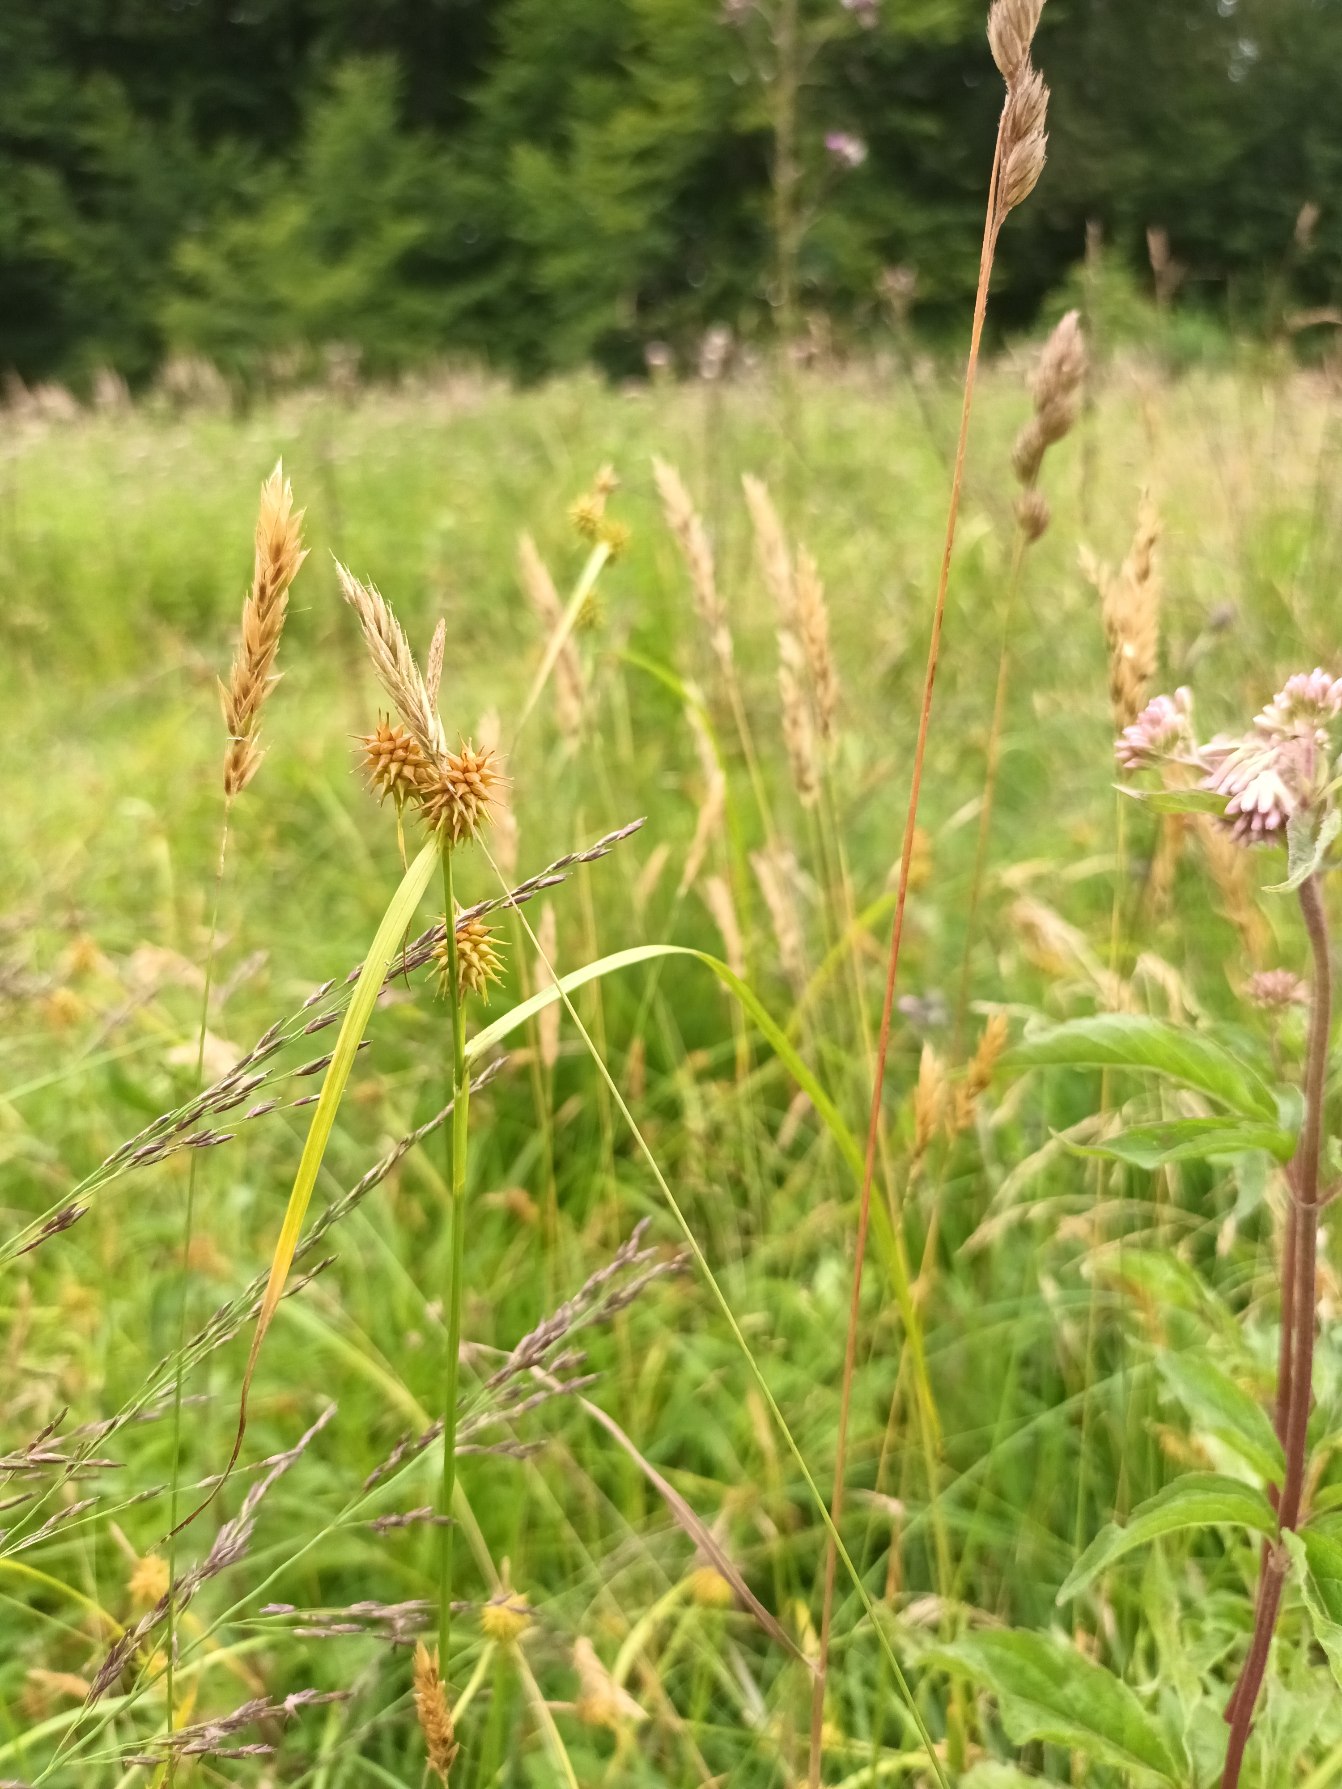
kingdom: Plantae
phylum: Tracheophyta
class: Liliopsida
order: Poales
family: Cyperaceae
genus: Carex
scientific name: Carex flava
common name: Gul star
